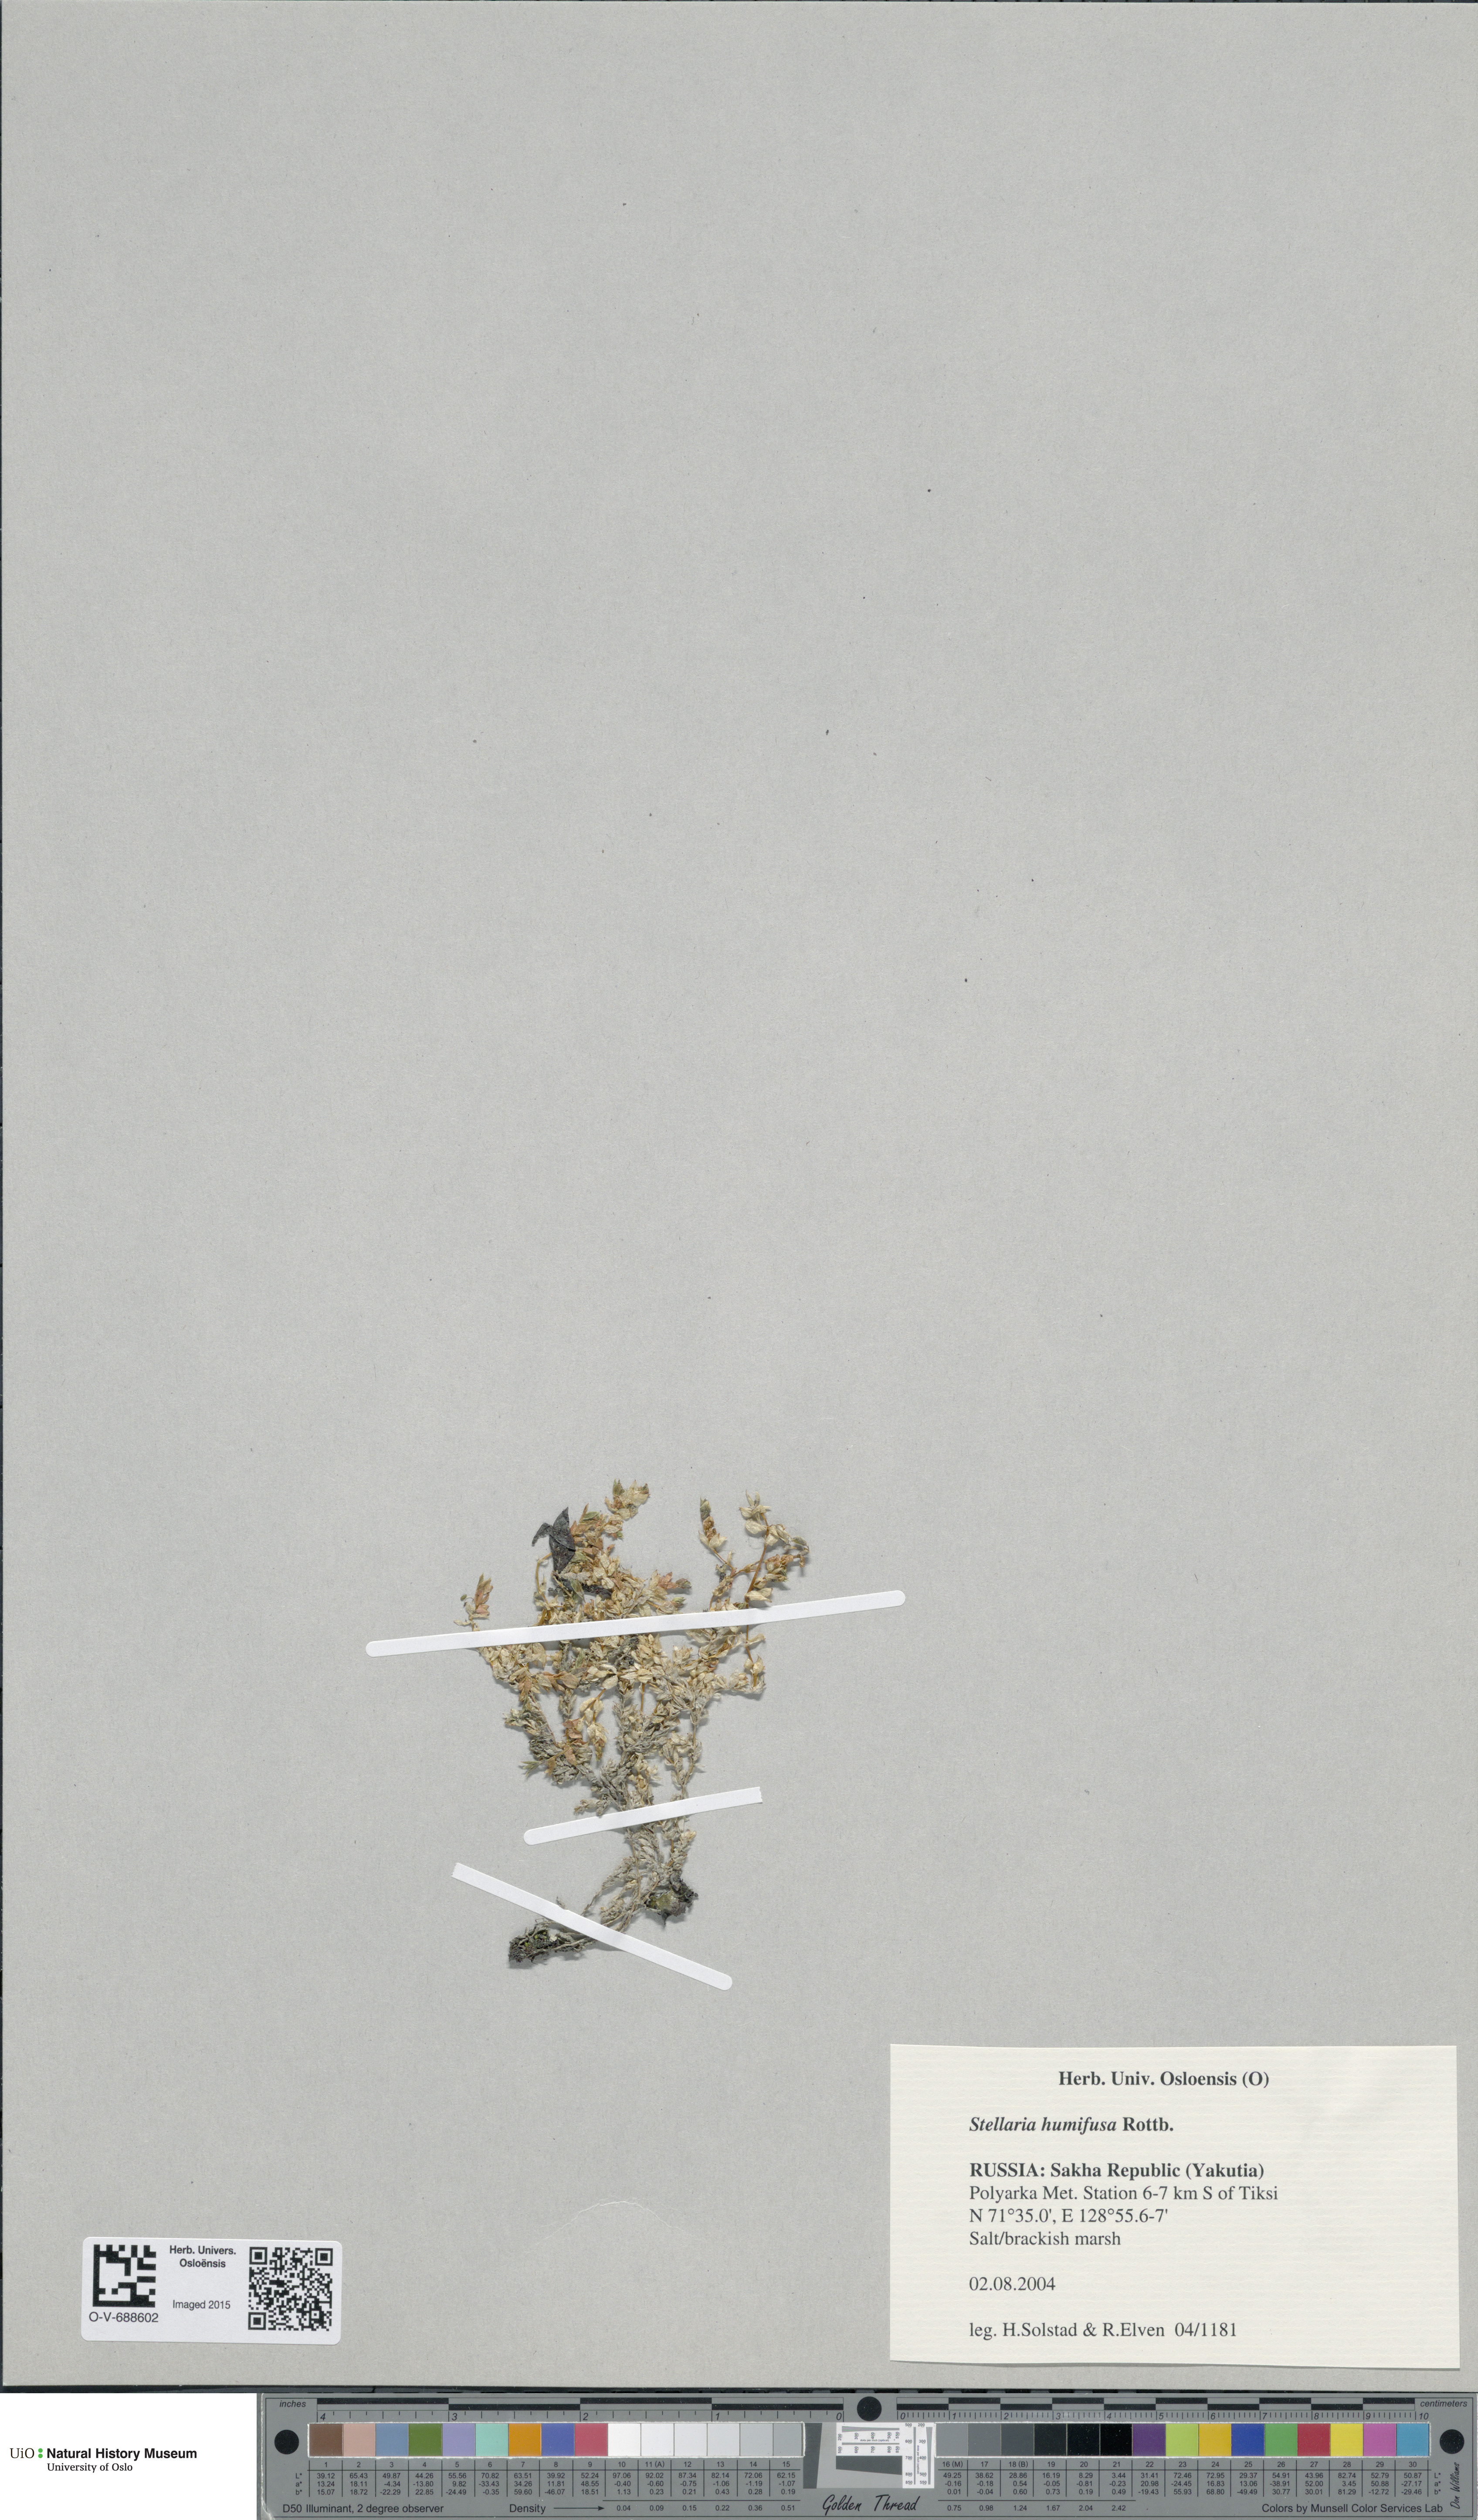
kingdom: Plantae
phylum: Tracheophyta
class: Magnoliopsida
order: Caryophyllales
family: Caryophyllaceae
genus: Stellaria
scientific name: Stellaria humifusa
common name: Creeping starwort
